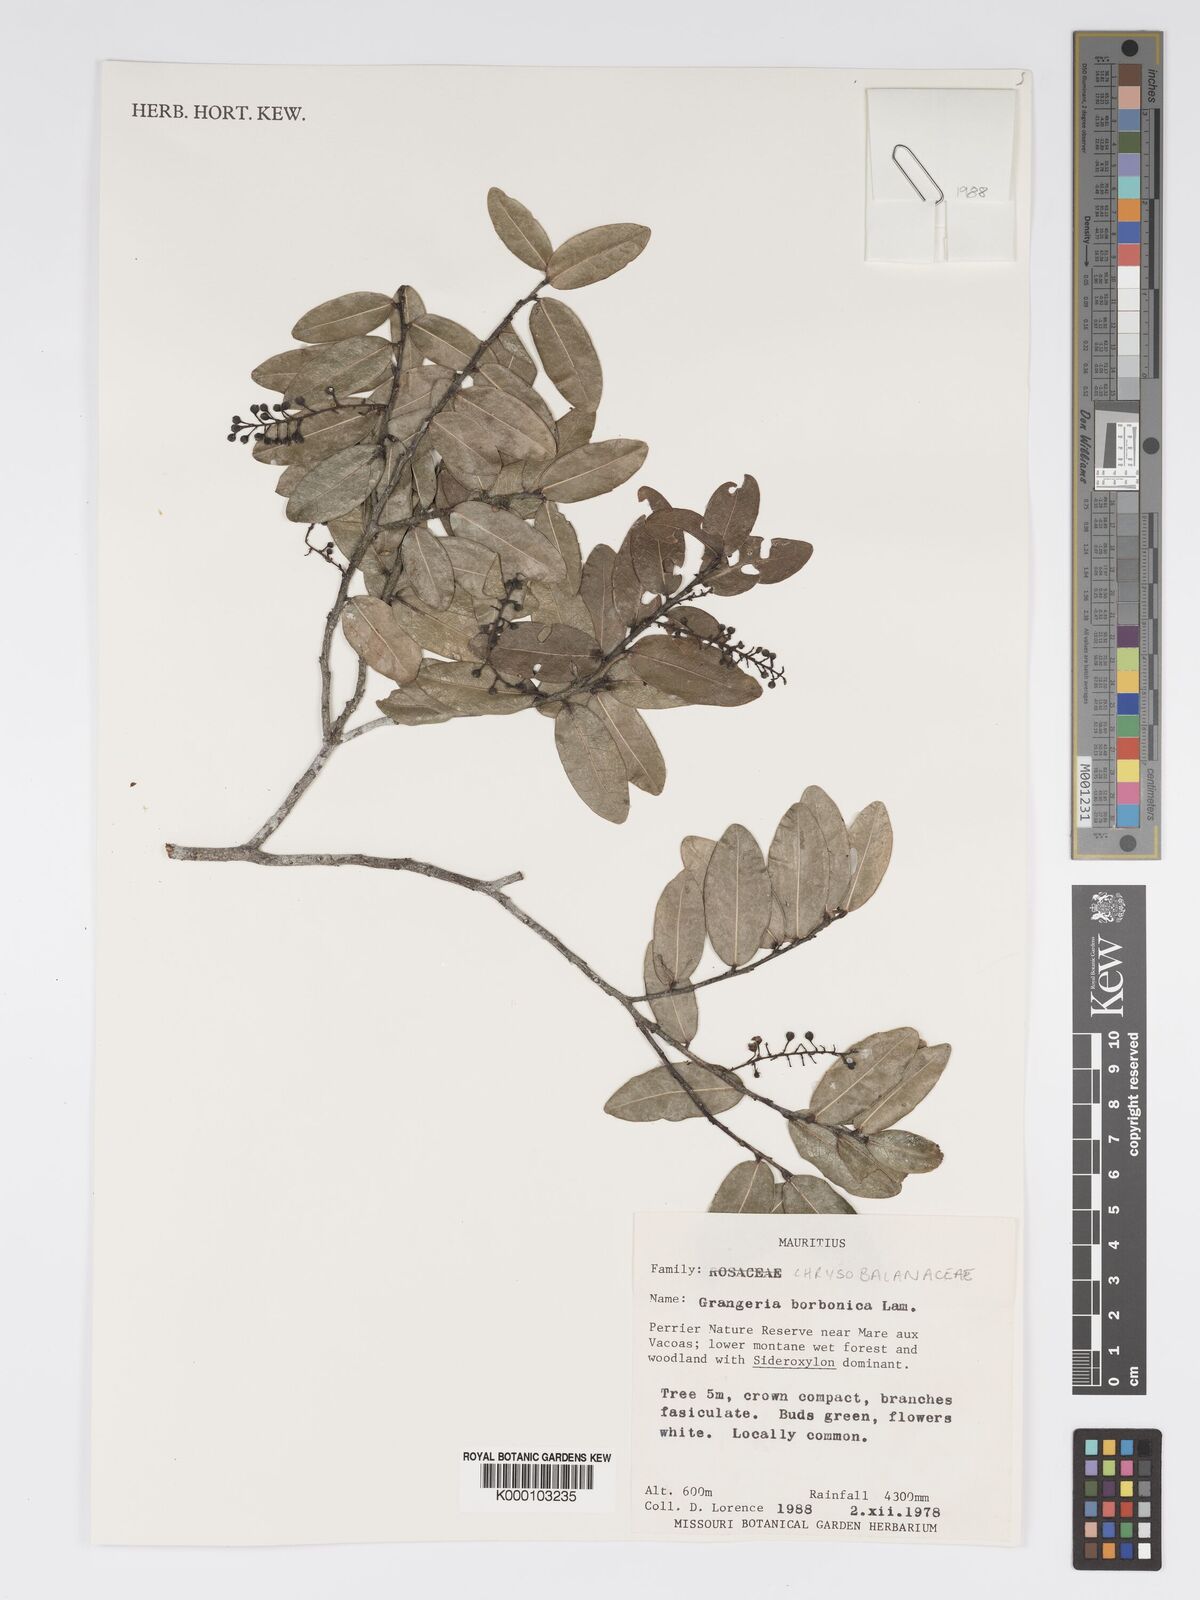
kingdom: Plantae
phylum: Tracheophyta
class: Magnoliopsida
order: Malpighiales
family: Chrysobalanaceae
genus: Grangeria
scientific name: Grangeria borbonica
